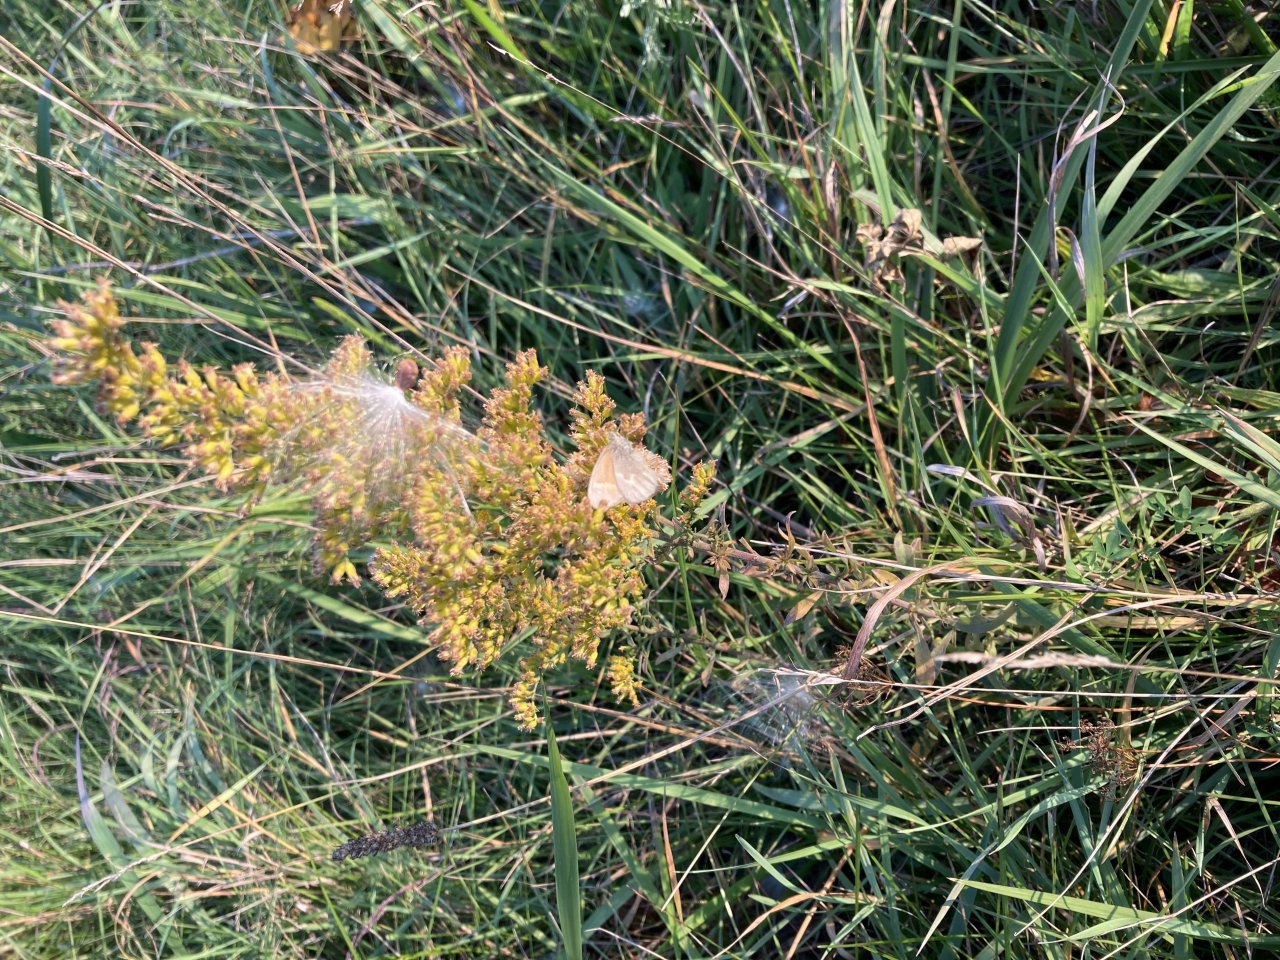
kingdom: Animalia
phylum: Arthropoda
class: Insecta
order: Lepidoptera
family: Nymphalidae
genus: Coenonympha
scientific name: Coenonympha tullia
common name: Large Heath
